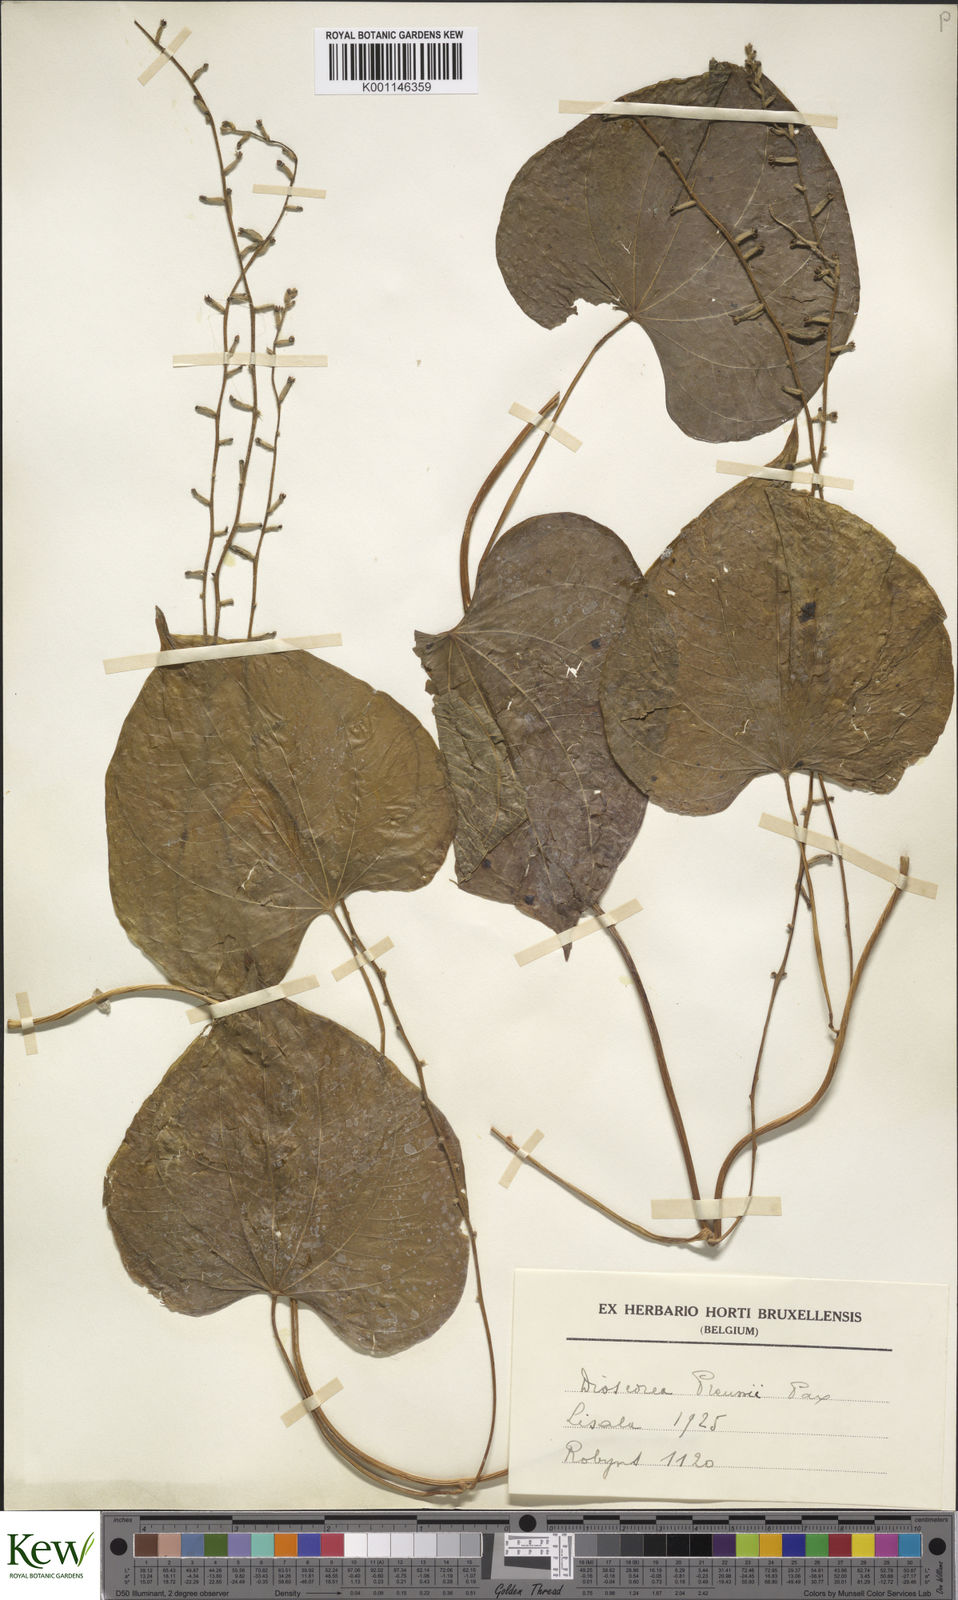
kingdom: Plantae
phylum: Tracheophyta
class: Liliopsida
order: Dioscoreales
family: Dioscoreaceae
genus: Dioscorea
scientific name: Dioscorea preussii
